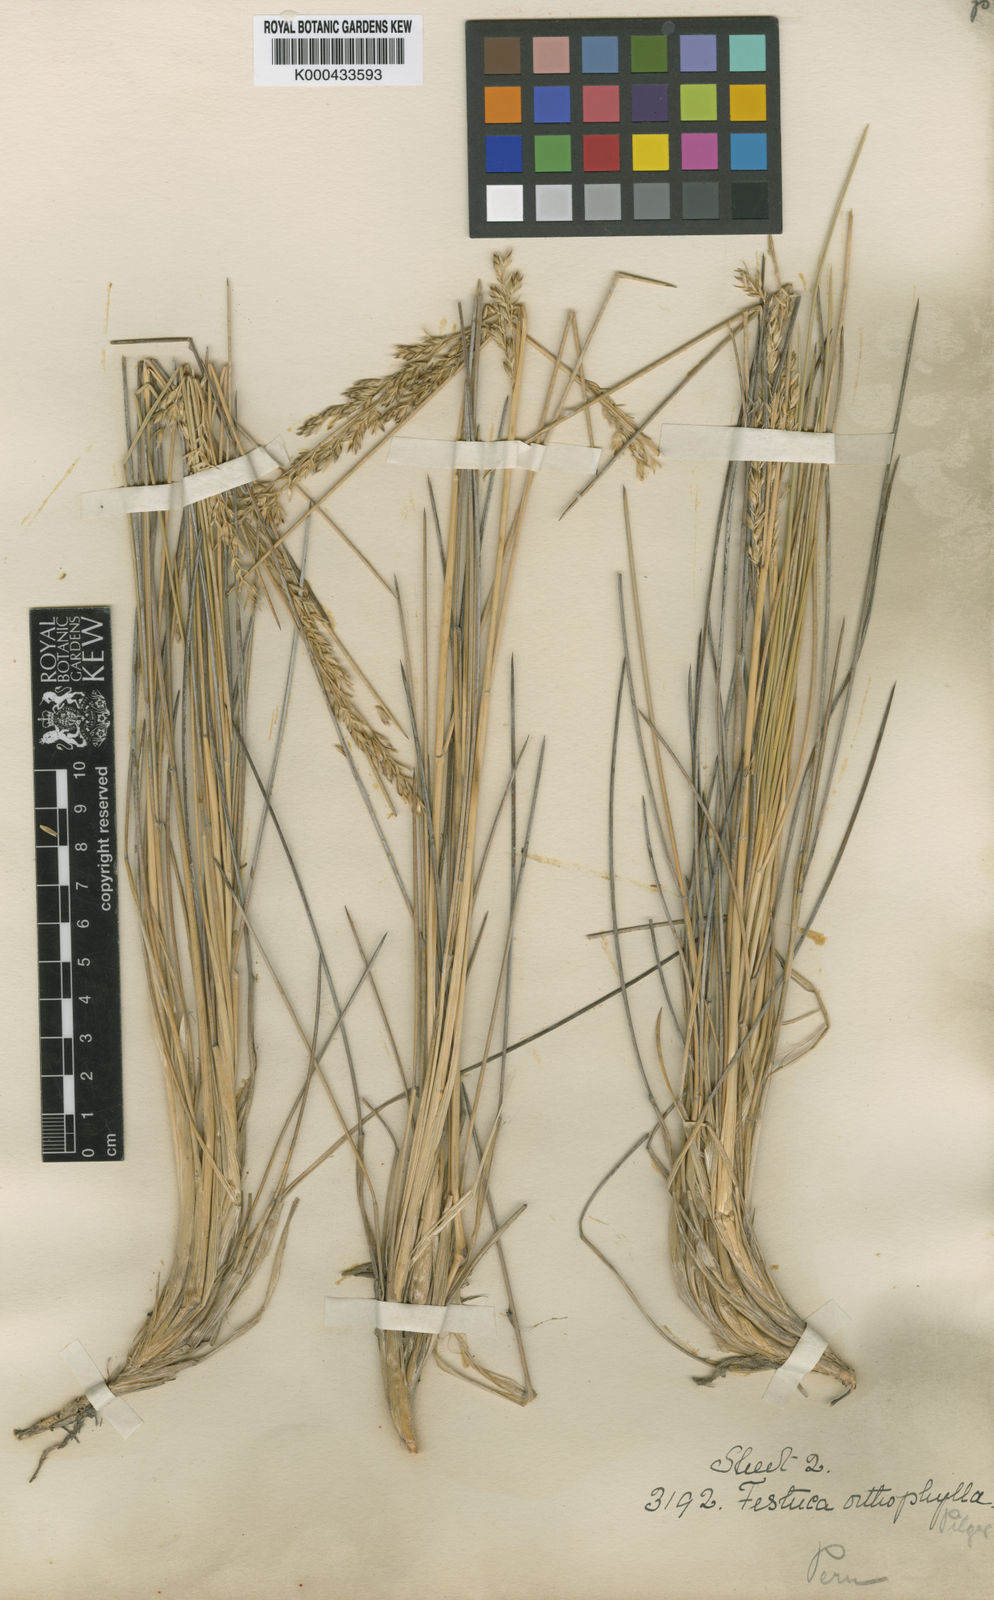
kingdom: Plantae
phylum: Tracheophyta
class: Liliopsida
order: Poales
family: Poaceae
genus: Festuca
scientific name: Festuca chrysophylla
